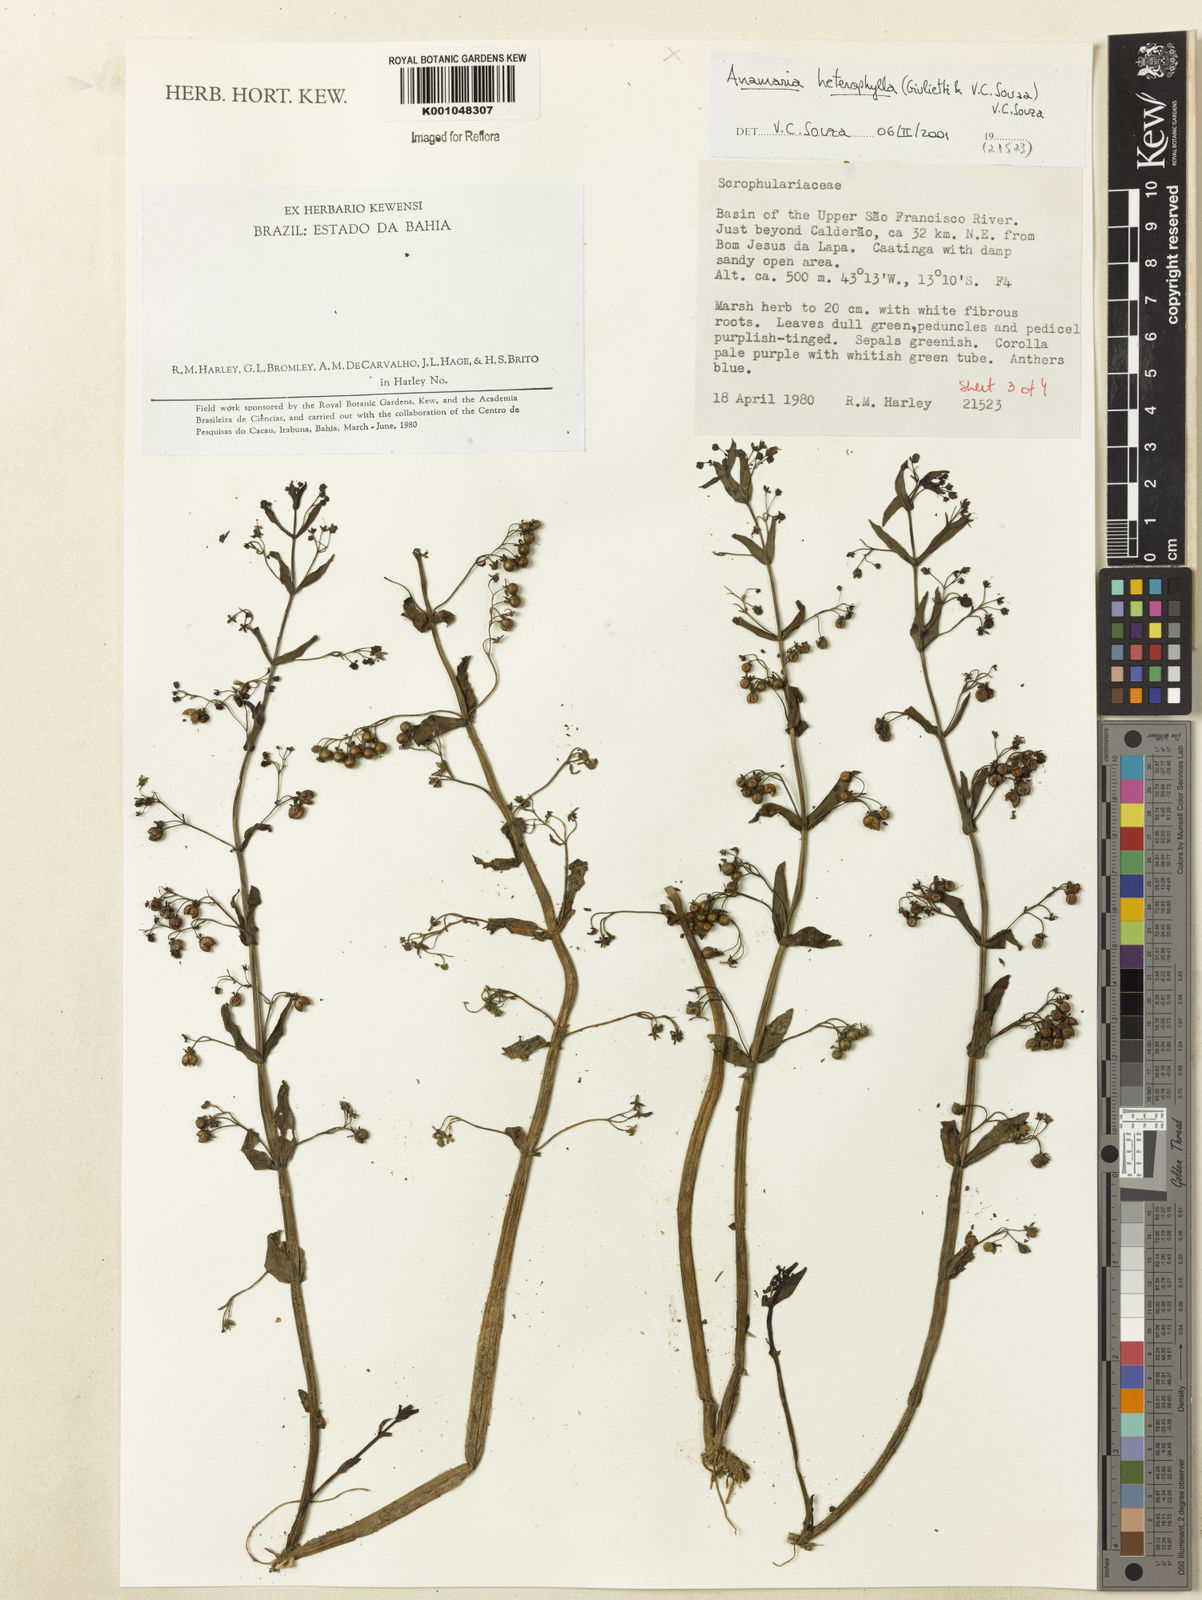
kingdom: Plantae
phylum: Tracheophyta
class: Magnoliopsida
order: Lamiales
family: Plantaginaceae
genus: Anamaria
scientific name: Anamaria heterophylla
